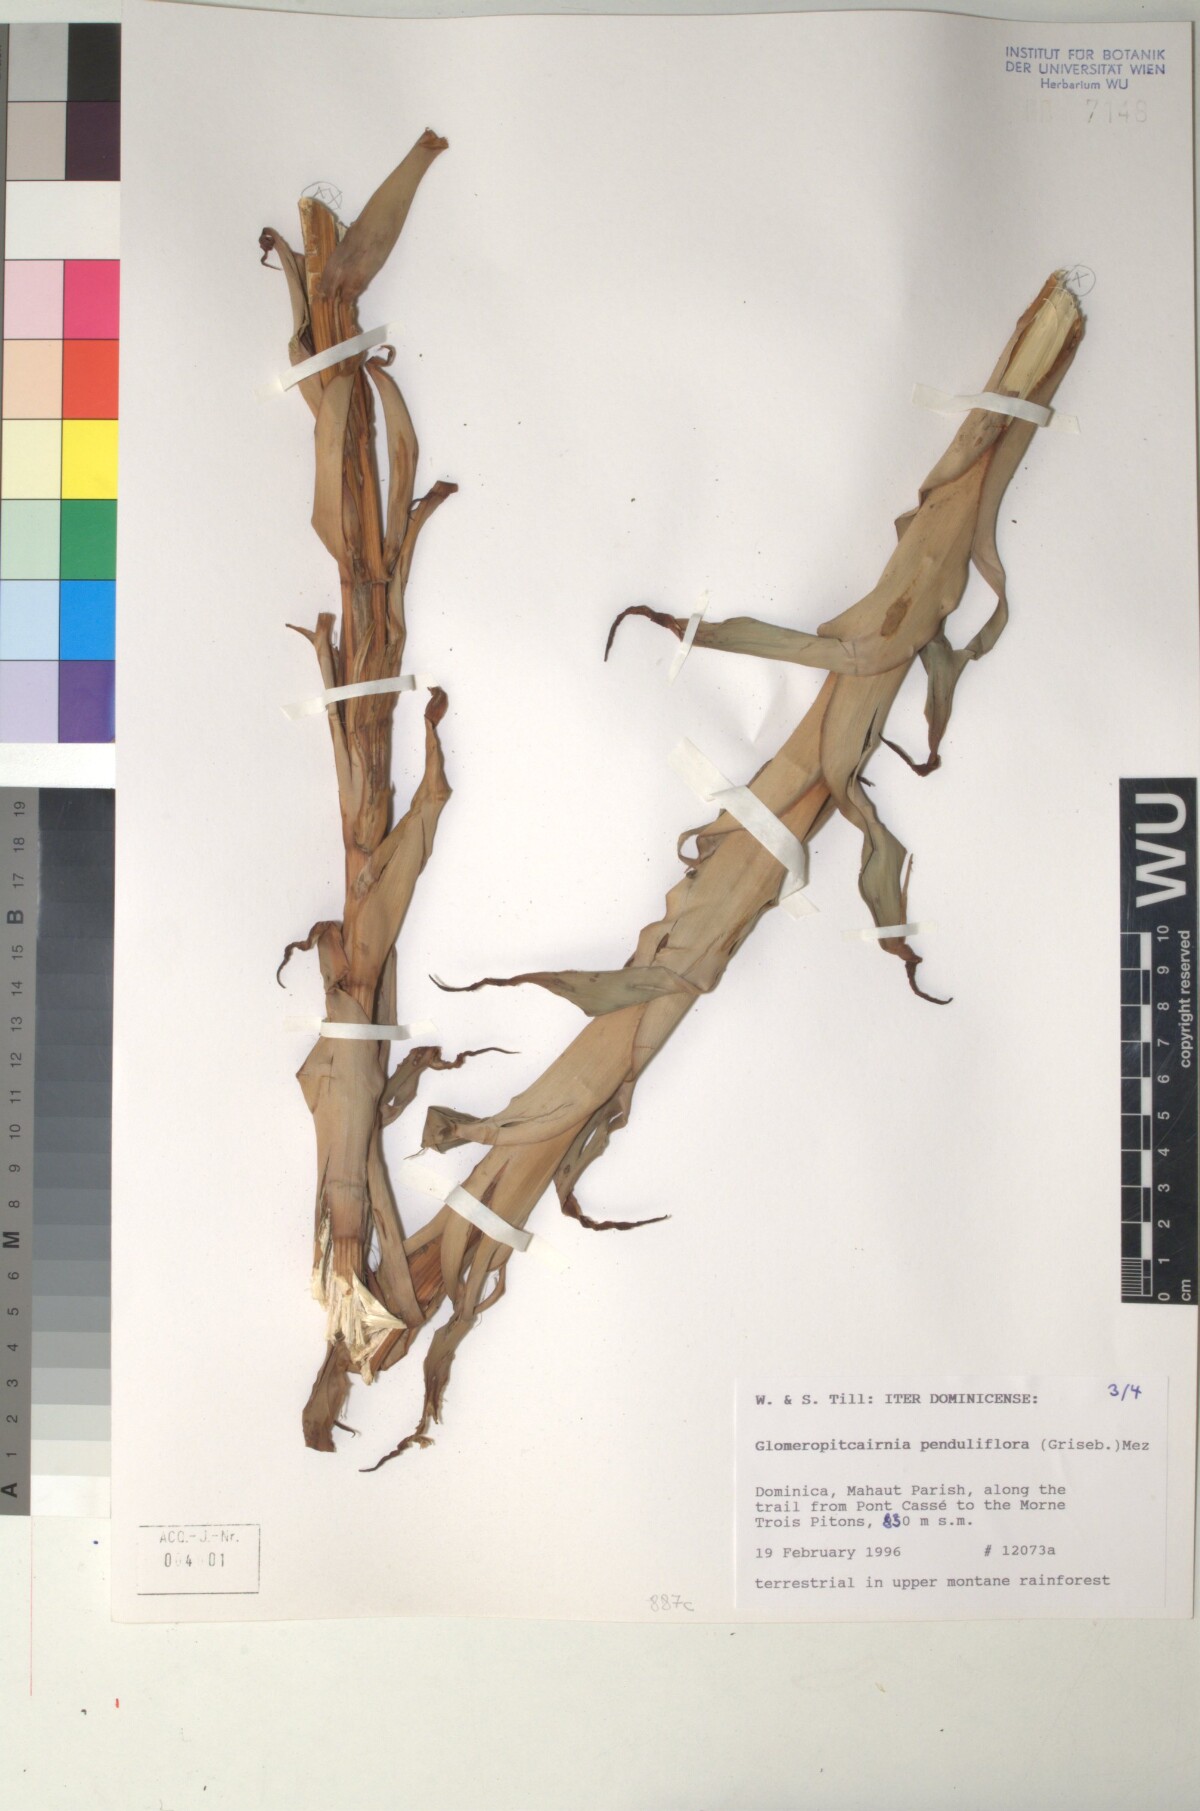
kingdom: Plantae
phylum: Tracheophyta
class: Liliopsida
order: Poales
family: Bromeliaceae
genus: Glomeropitcairnia
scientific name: Glomeropitcairnia penduliflora
